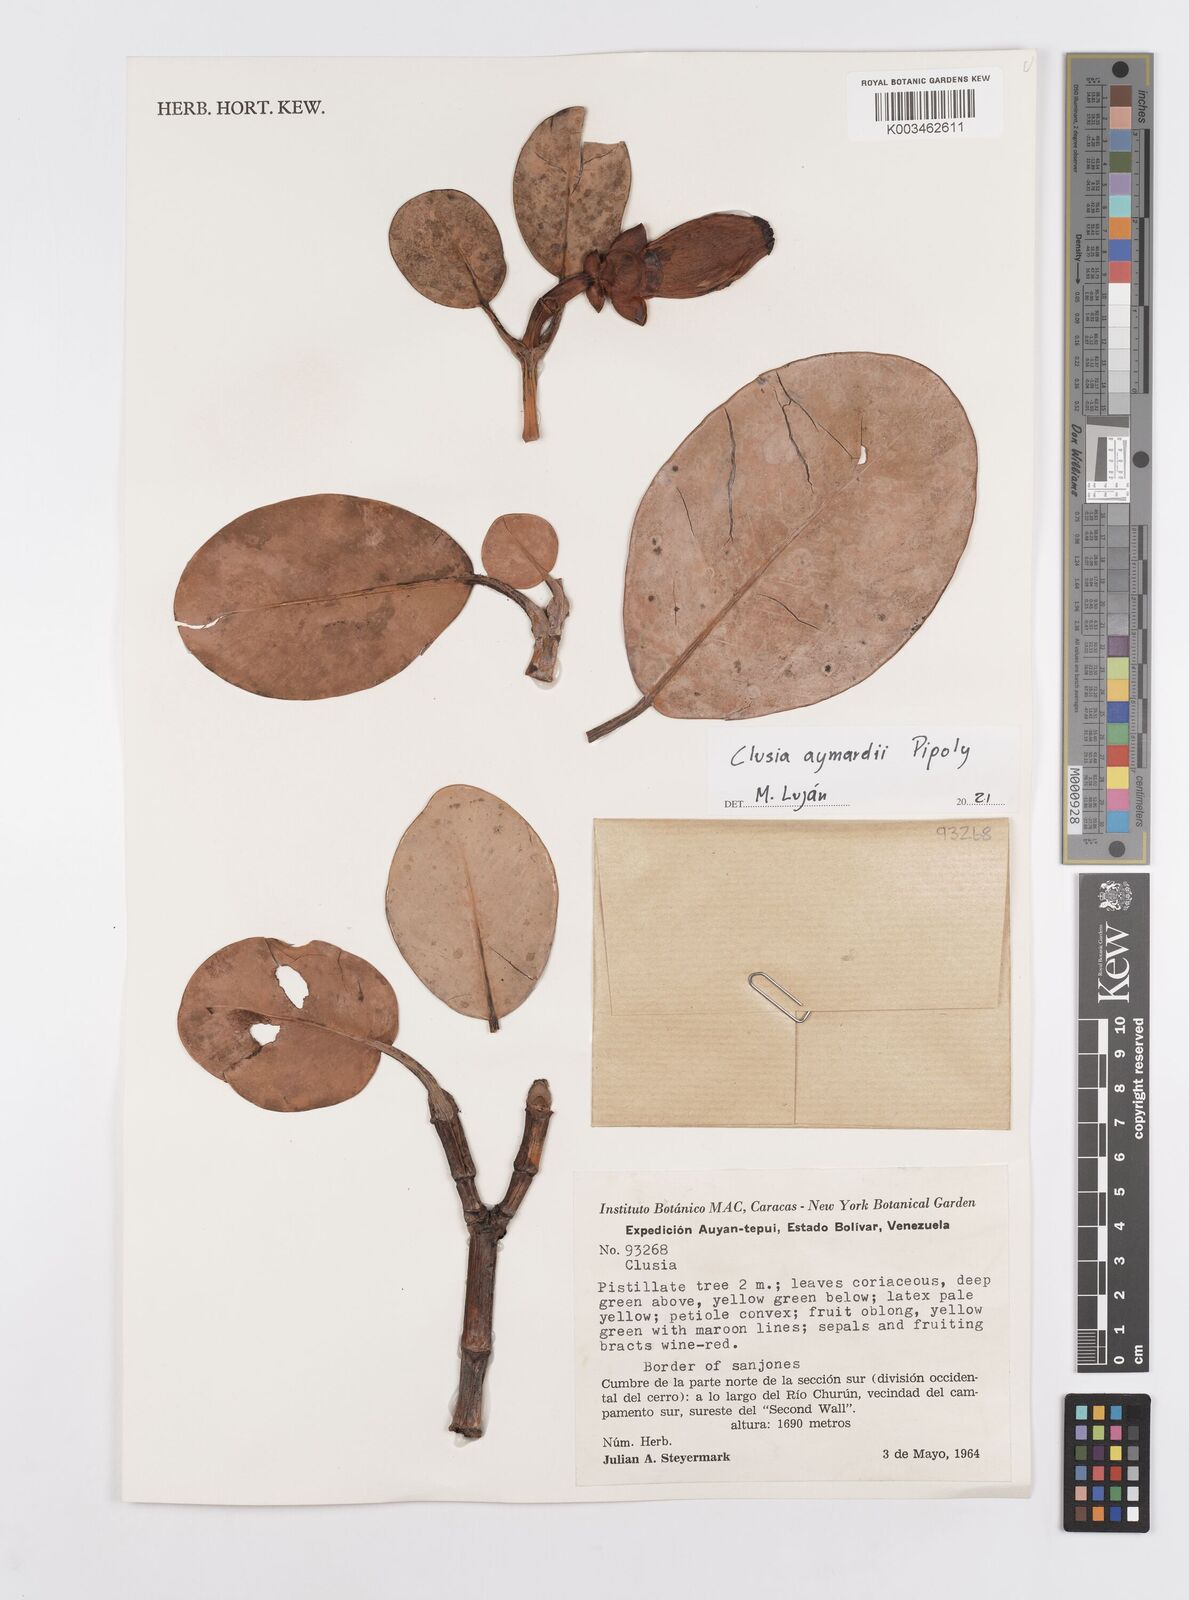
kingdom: Plantae
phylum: Tracheophyta
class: Magnoliopsida
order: Malpighiales
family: Clusiaceae
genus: Clusia
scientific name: Clusia aymardii
